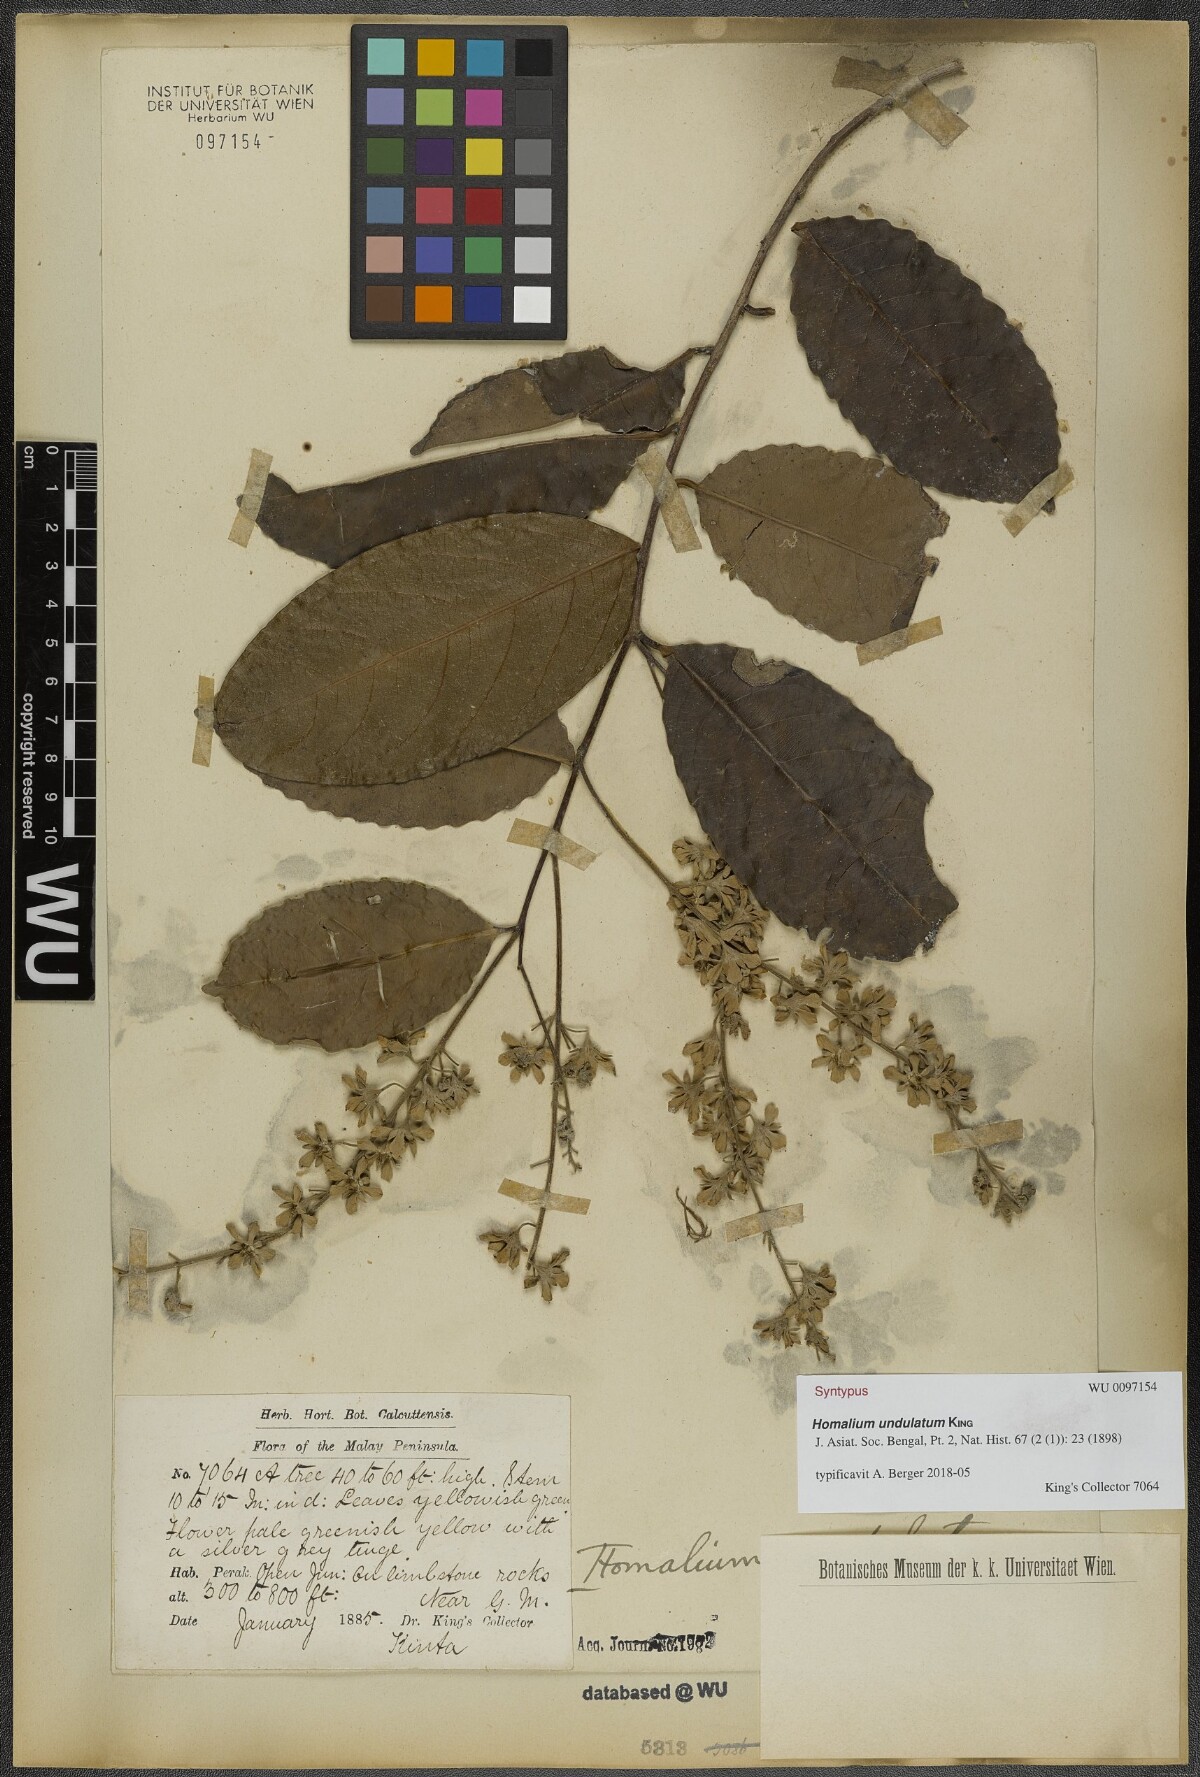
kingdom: Plantae
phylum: Tracheophyta
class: Magnoliopsida
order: Malpighiales
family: Salicaceae
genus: Homalium
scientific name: Homalium undulatum
